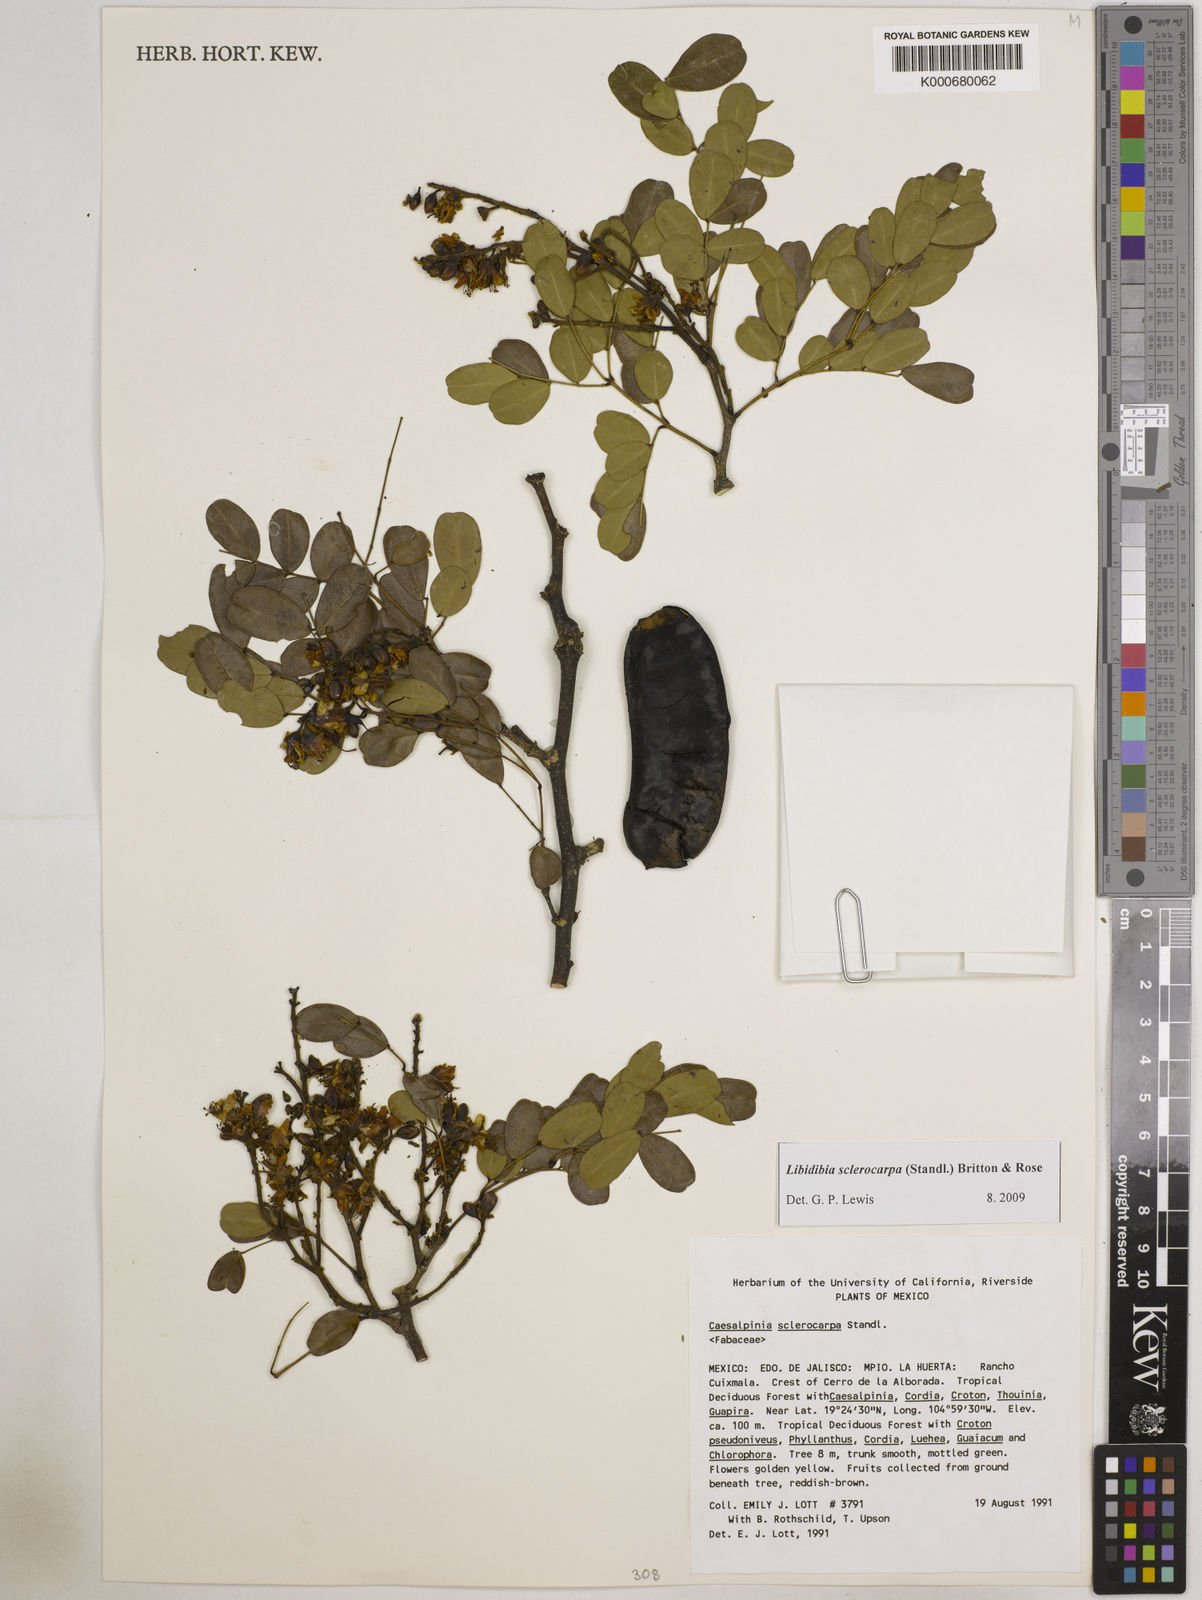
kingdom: Plantae
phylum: Tracheophyta
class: Magnoliopsida
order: Fabales
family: Fabaceae
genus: Libidibia
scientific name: Libidibia sclerocarpa
